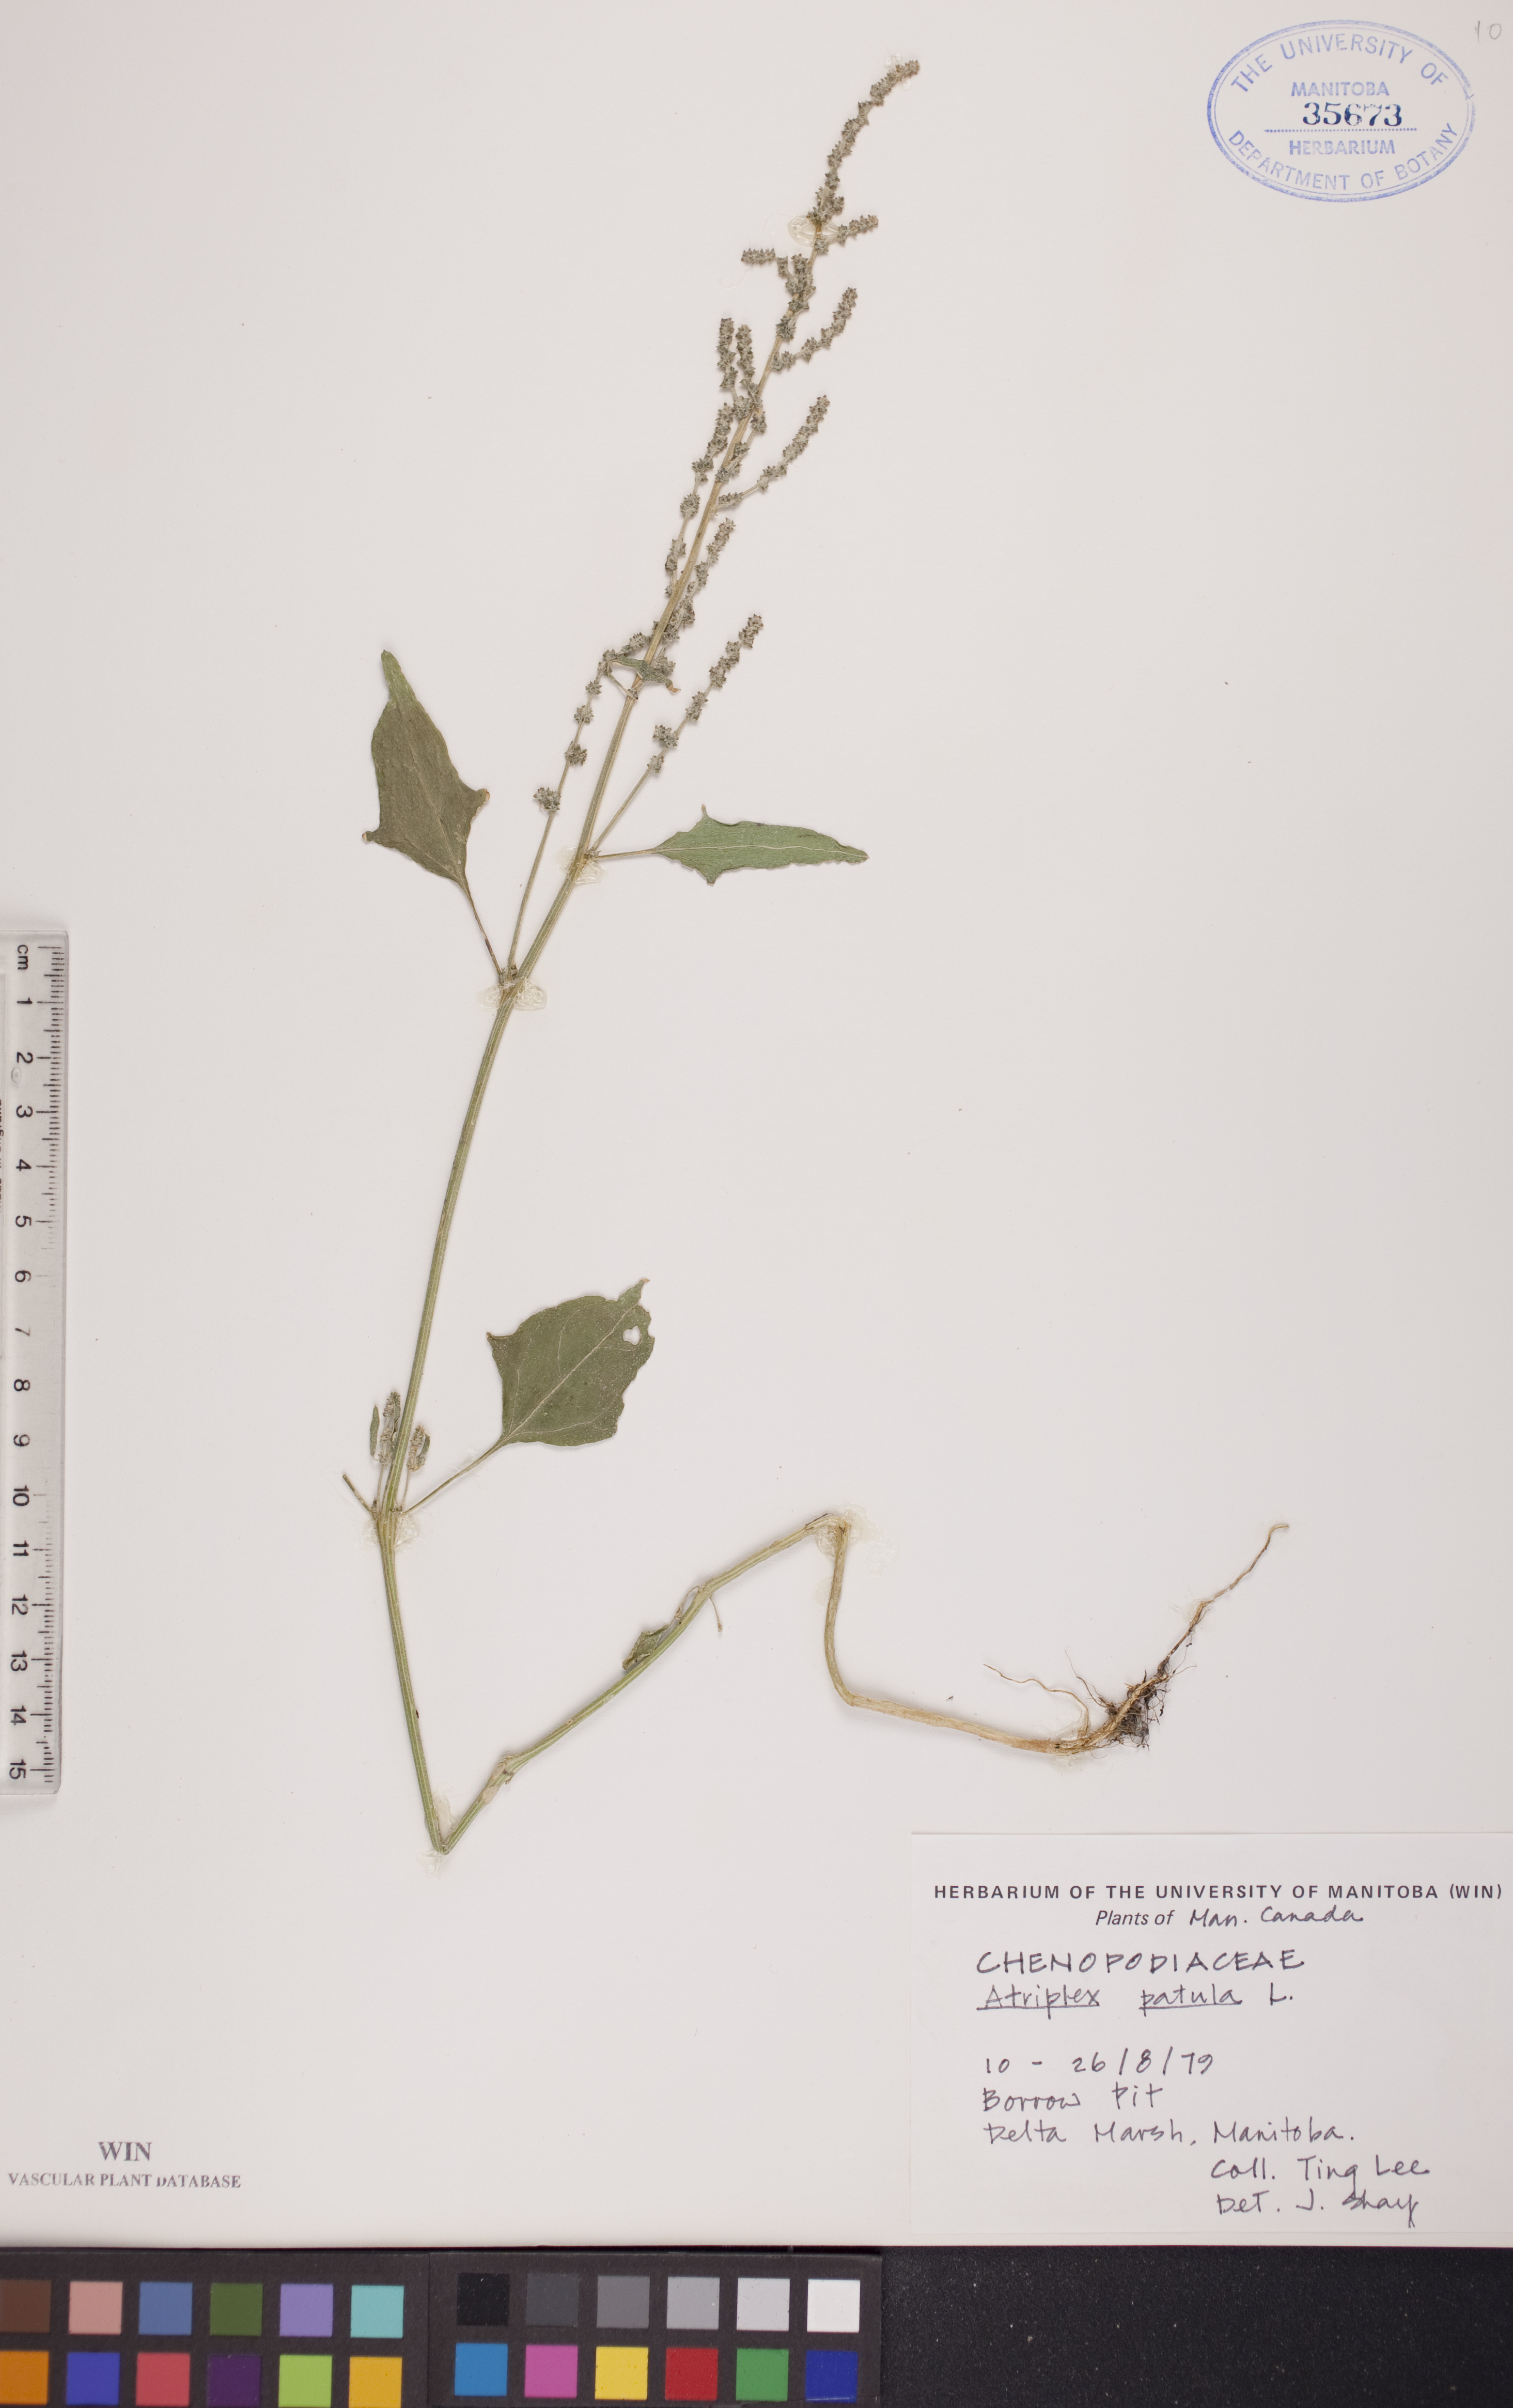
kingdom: Plantae
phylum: Tracheophyta
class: Magnoliopsida
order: Caryophyllales
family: Amaranthaceae
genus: Atriplex
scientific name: Atriplex patula
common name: Common orache
